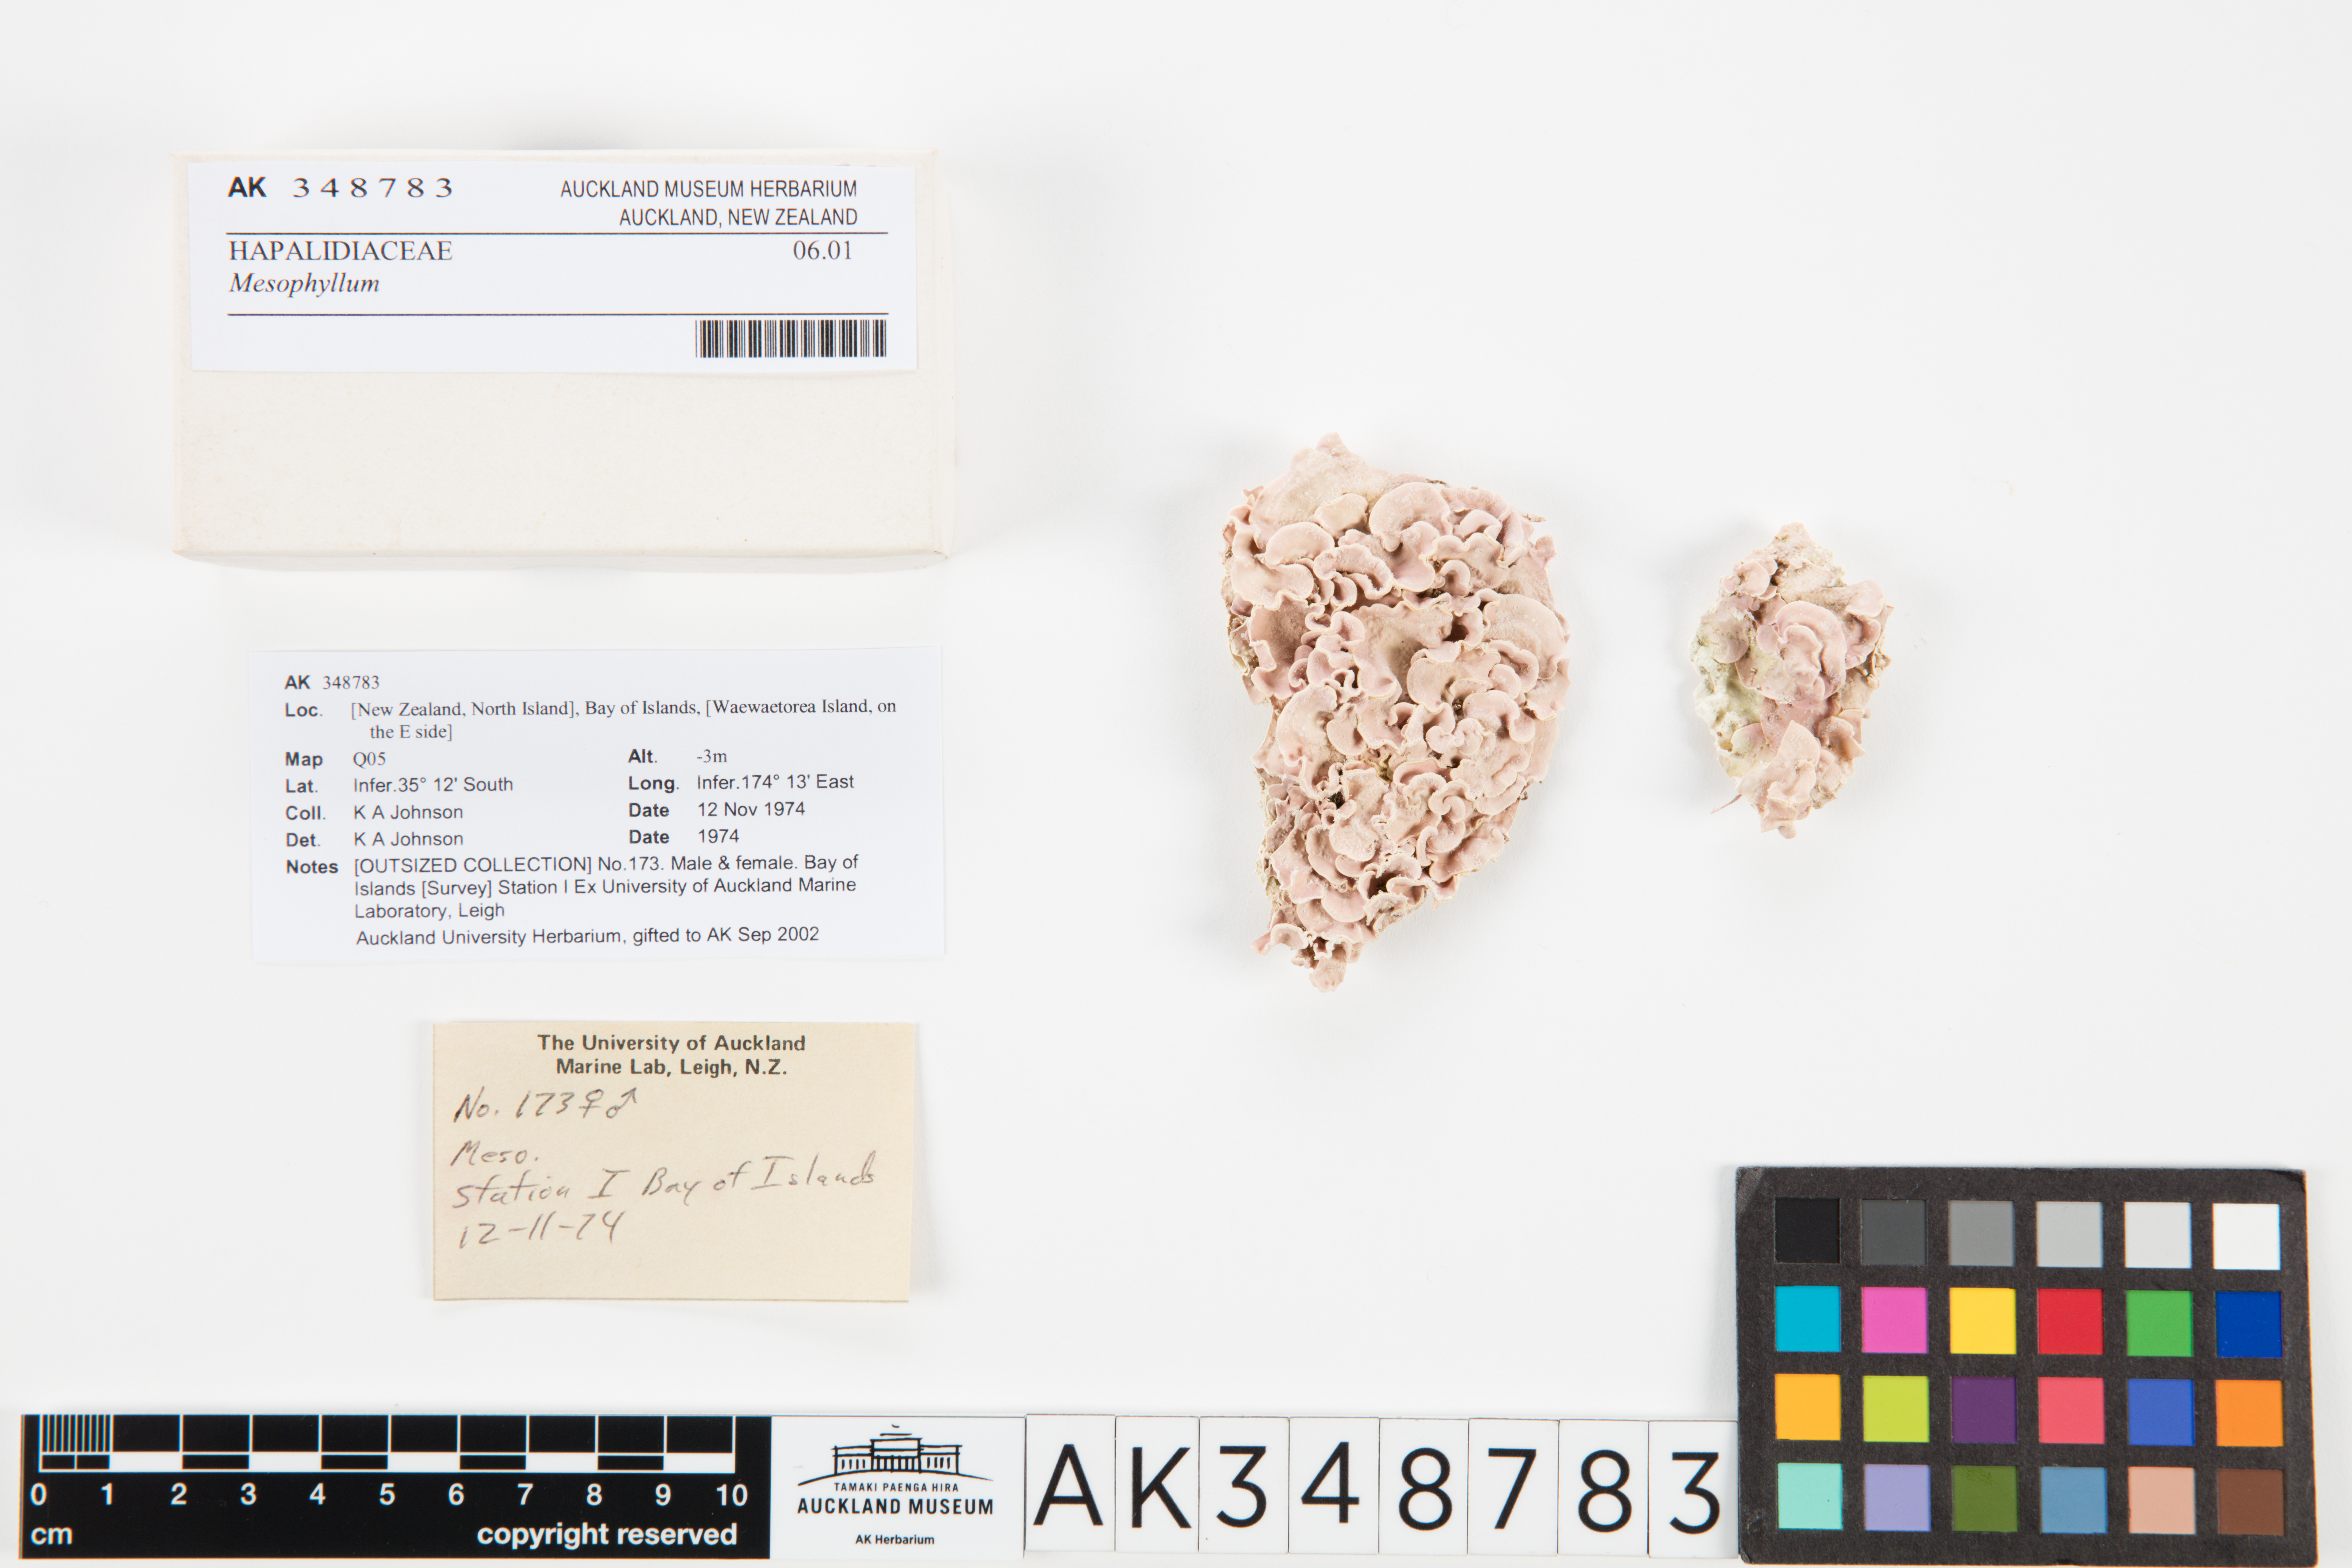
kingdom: Plantae
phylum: Rhodophyta
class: Florideophyceae
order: Corallinales
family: Mesophyllumaceae
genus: Mesophyllum
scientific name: Mesophyllum
